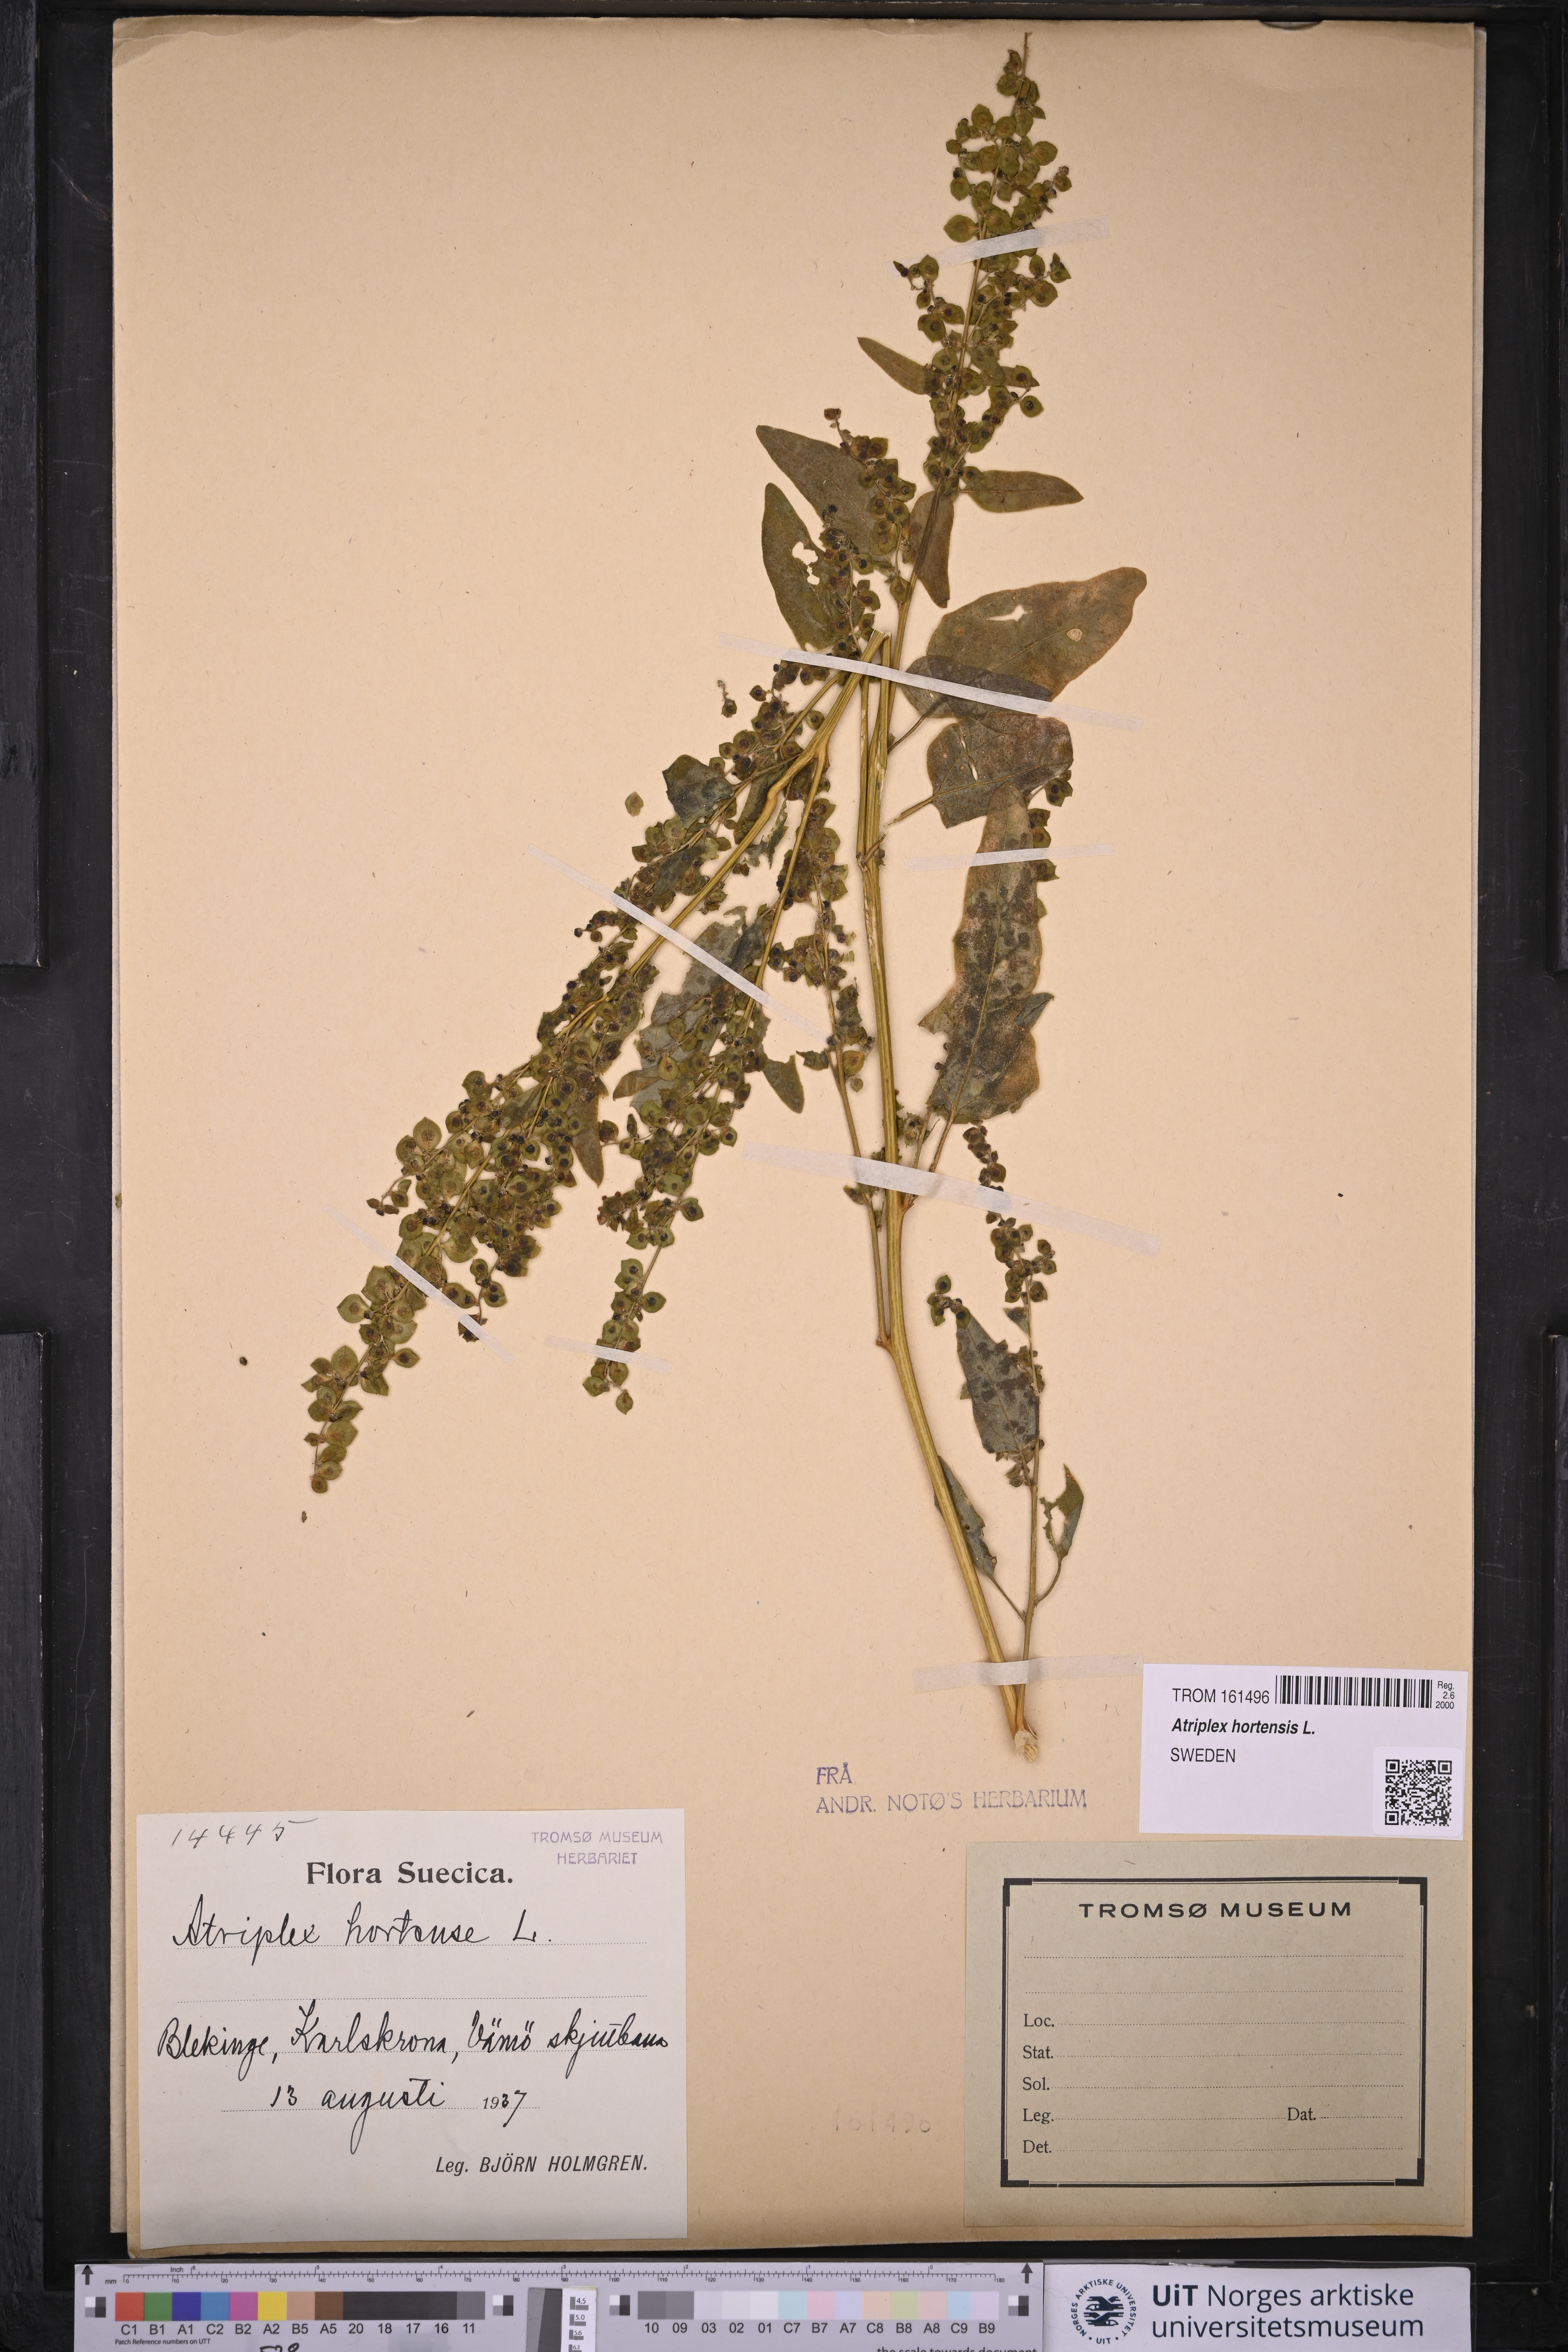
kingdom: Plantae
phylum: Tracheophyta
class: Magnoliopsida
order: Caryophyllales
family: Amaranthaceae
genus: Atriplex
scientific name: Atriplex hortensis
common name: Garden orache
